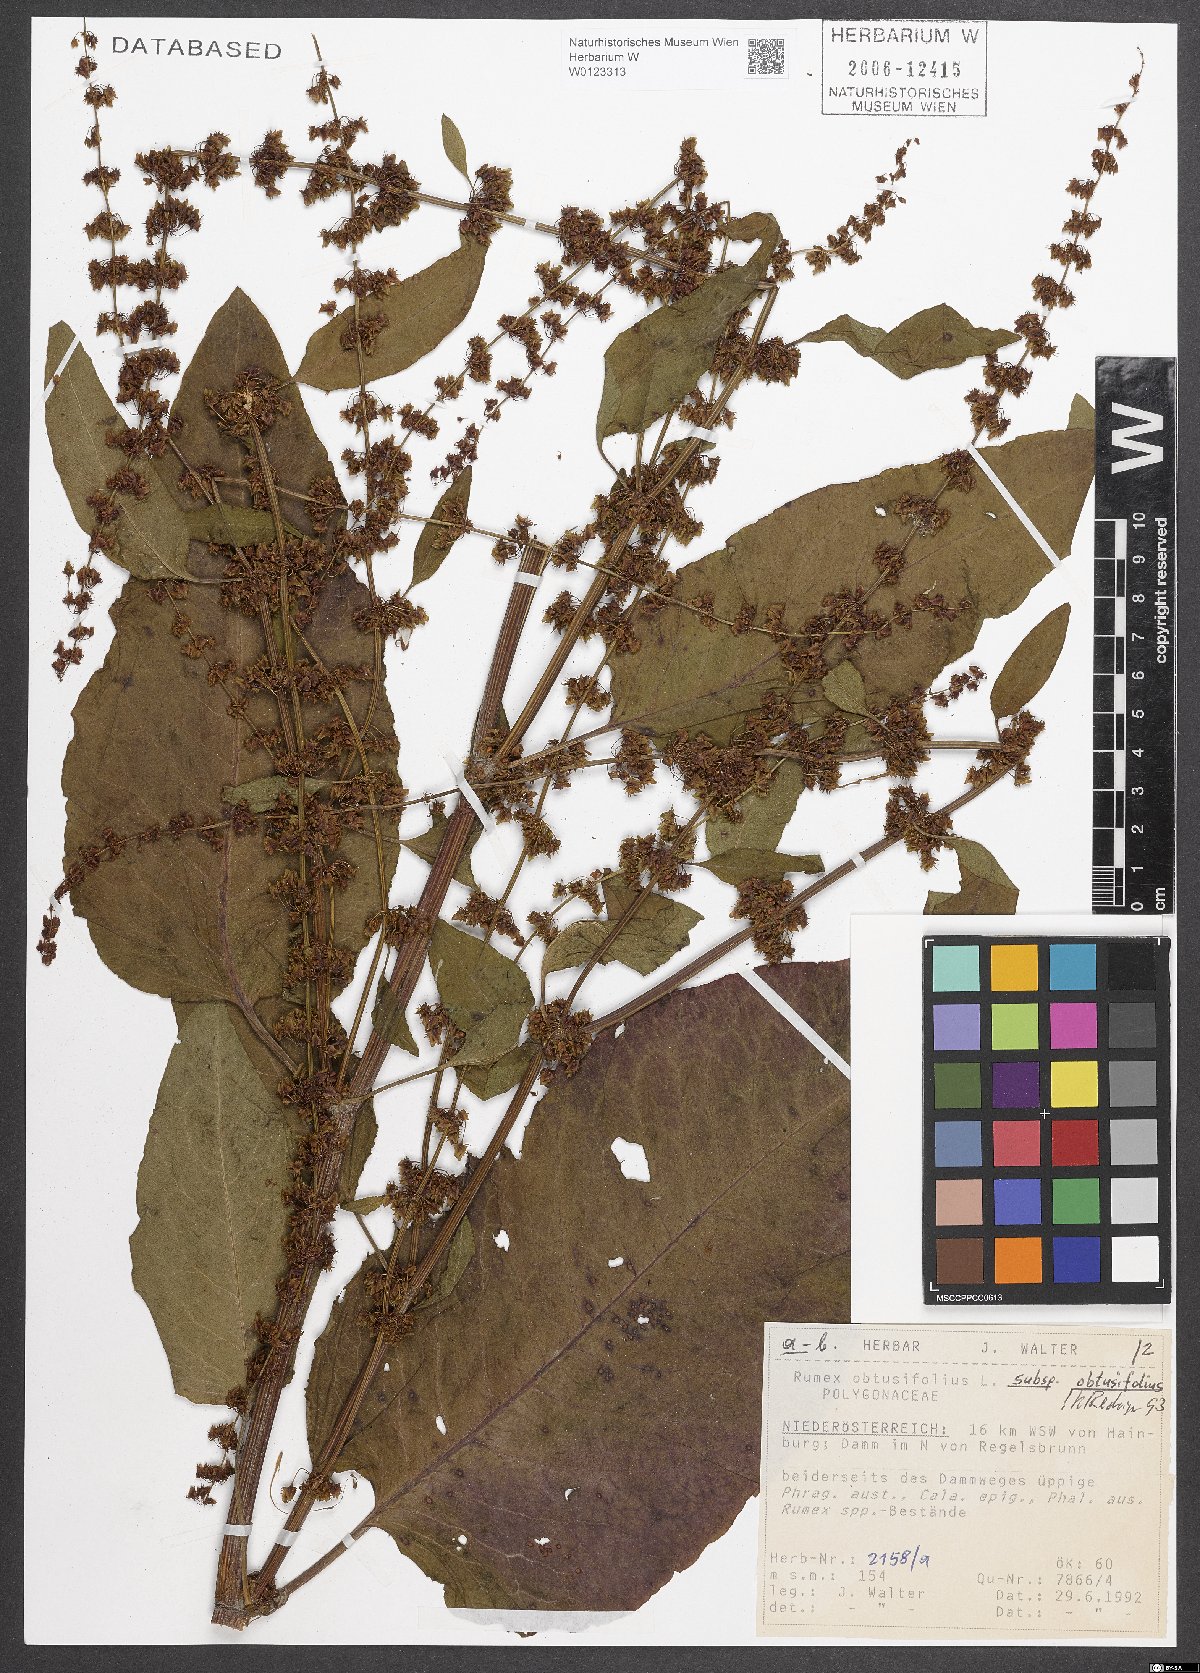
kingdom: Plantae
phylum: Tracheophyta
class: Magnoliopsida
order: Caryophyllales
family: Polygonaceae
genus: Rumex
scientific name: Rumex obtusifolius
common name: Bitter dock
